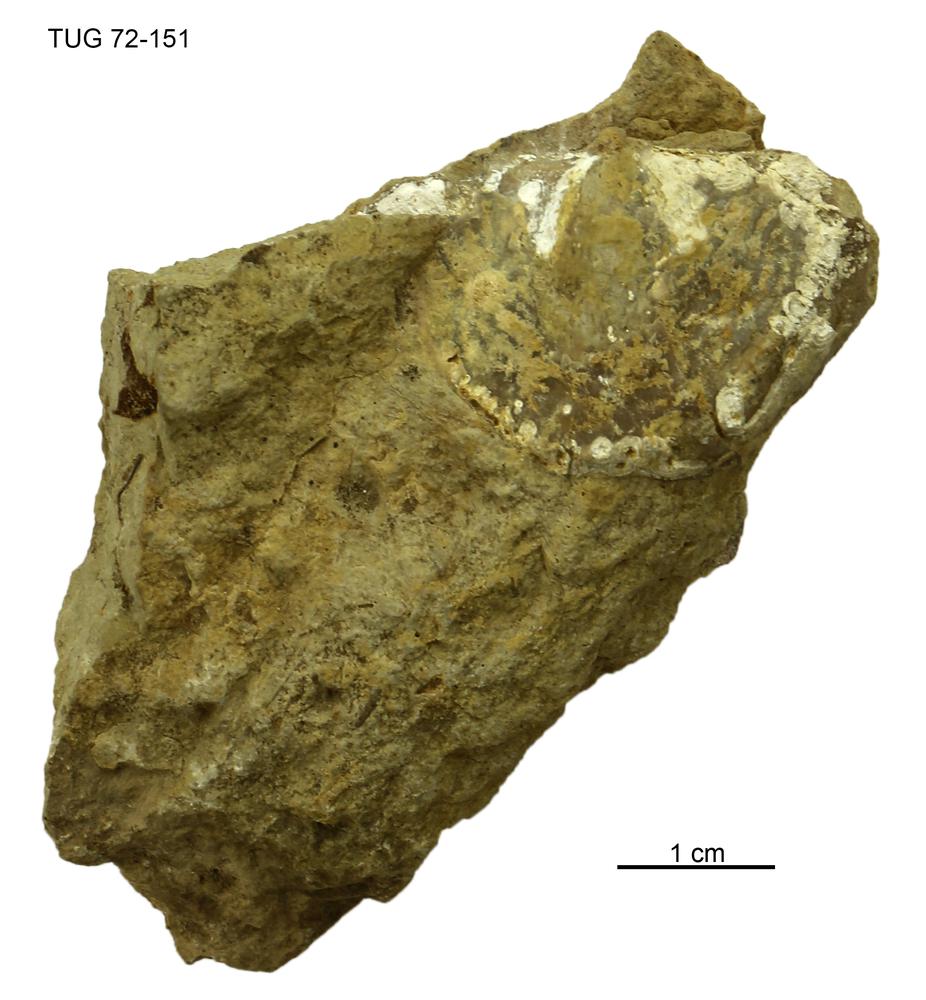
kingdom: Animalia
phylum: Brachiopoda
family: Strophomenidae
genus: Leptaena
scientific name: Leptaena
